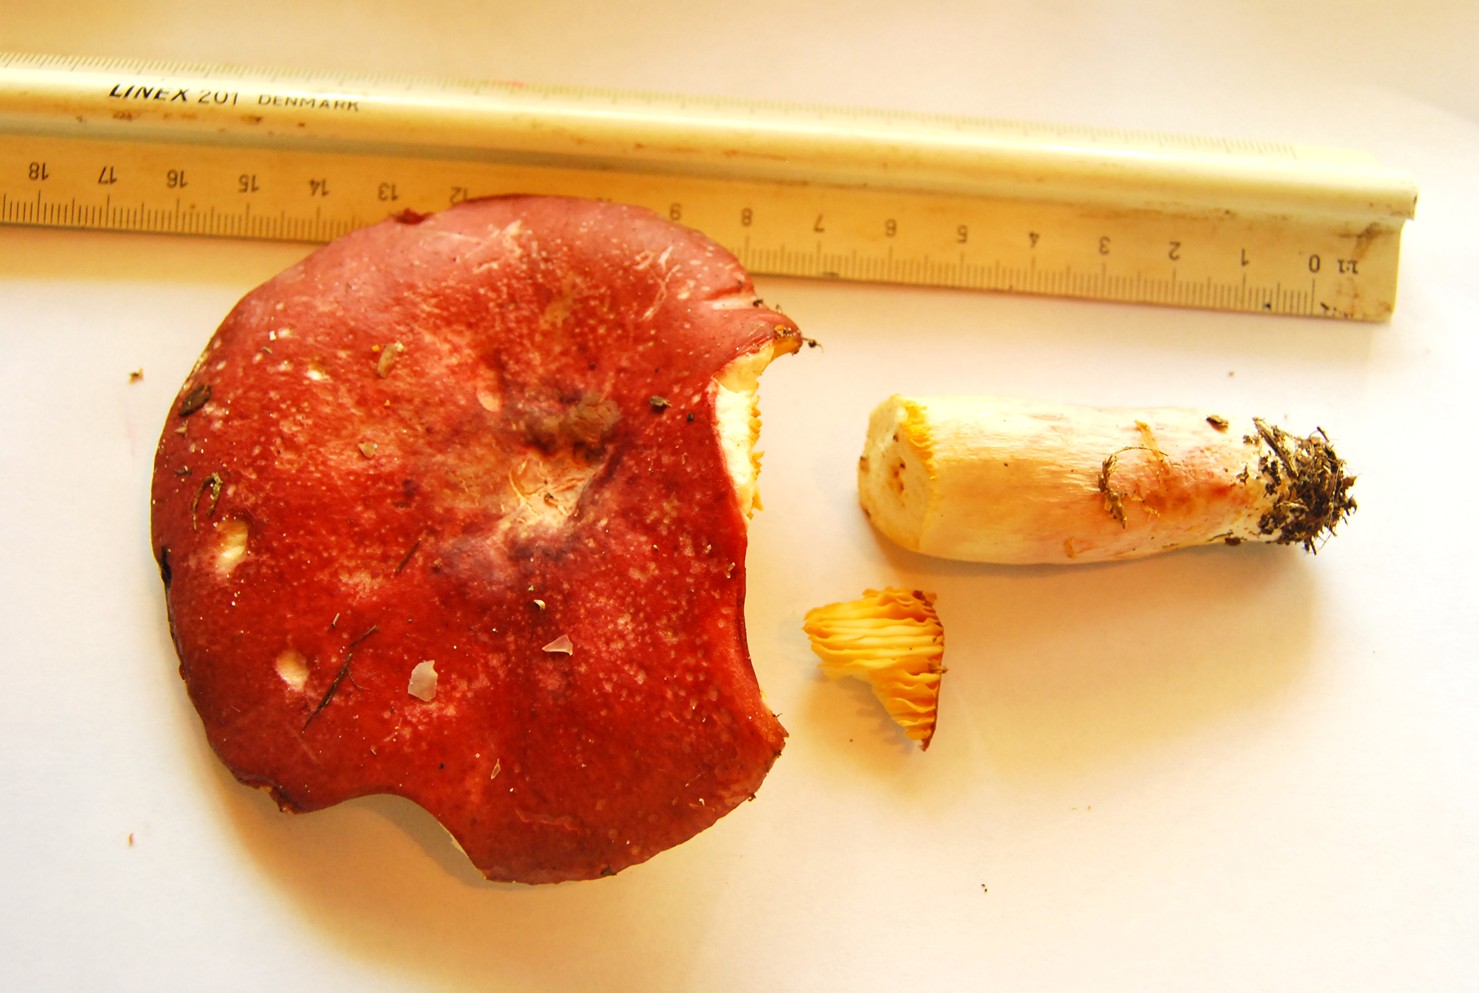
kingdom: Fungi
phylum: Basidiomycota
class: Agaricomycetes
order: Russulales
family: Russulaceae
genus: Russula
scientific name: Russula sardonia
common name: citronbladet skørhat
